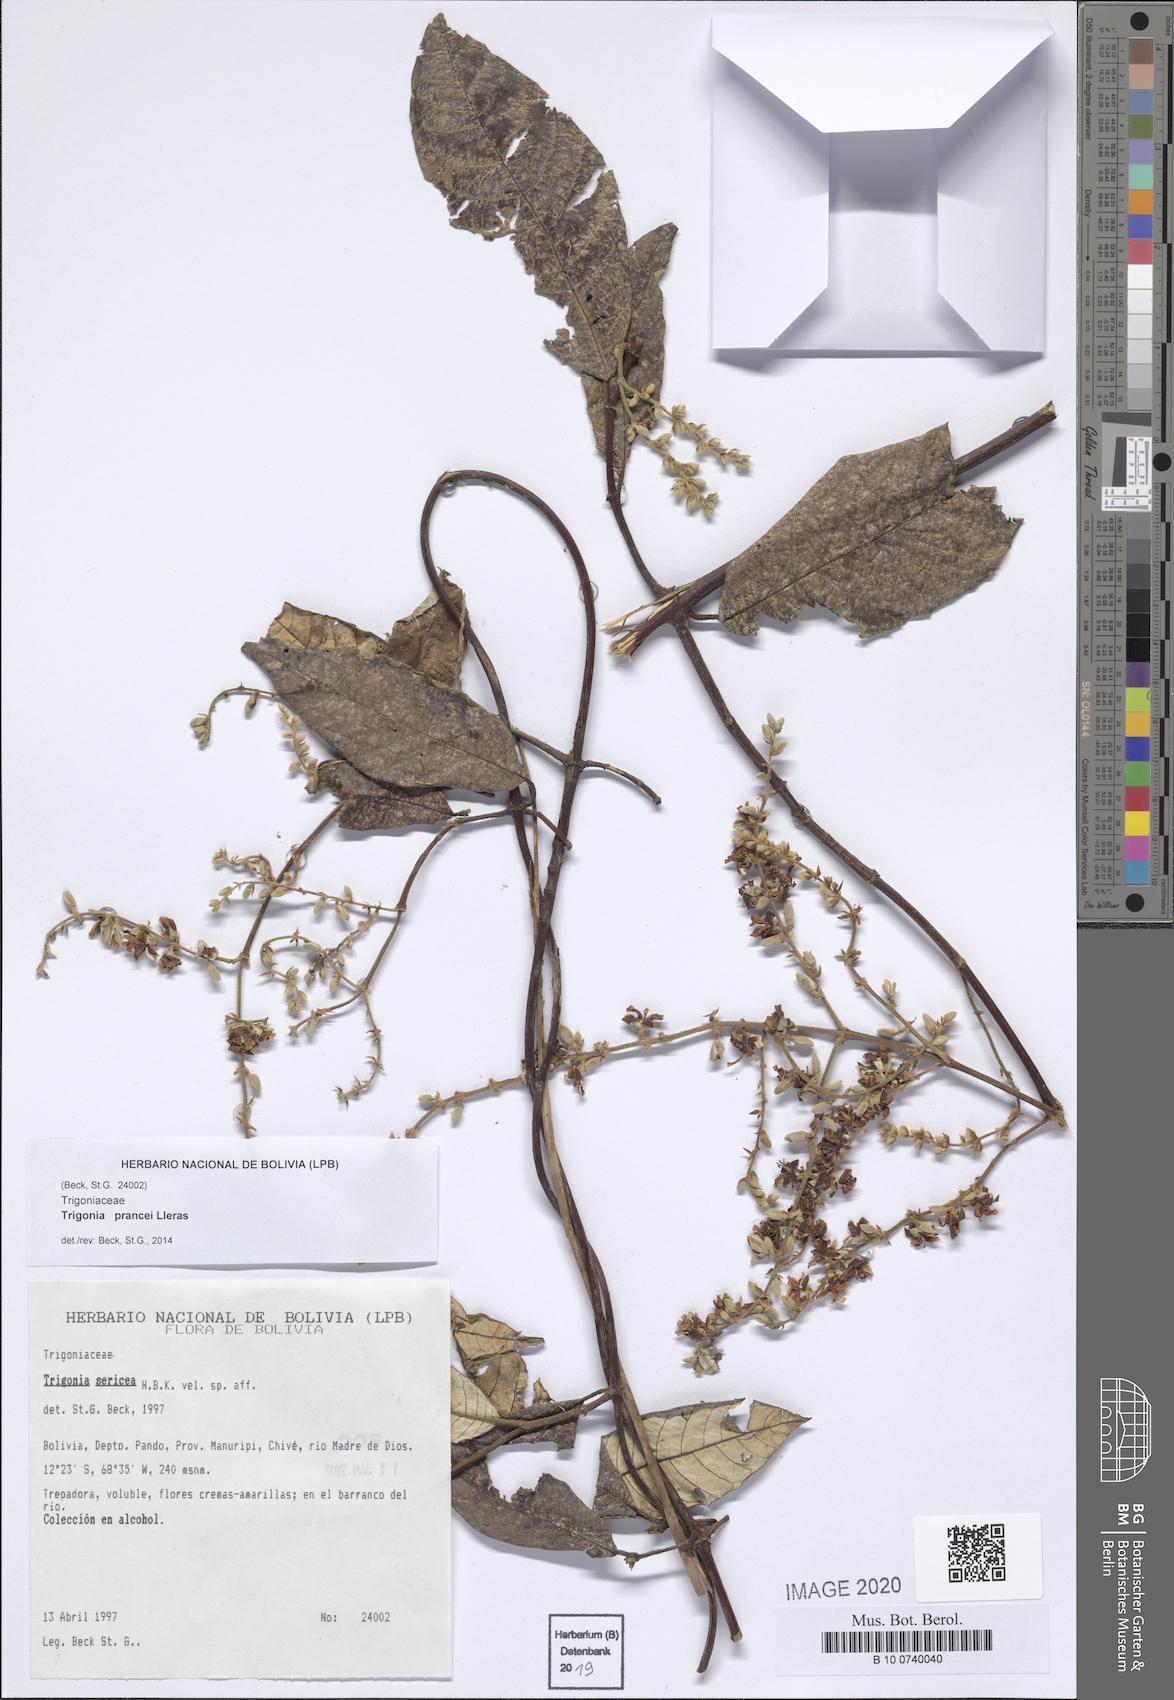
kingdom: Plantae
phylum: Tracheophyta
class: Magnoliopsida
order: Malpighiales
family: Trigoniaceae
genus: Trigonia
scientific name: Trigonia prancei
